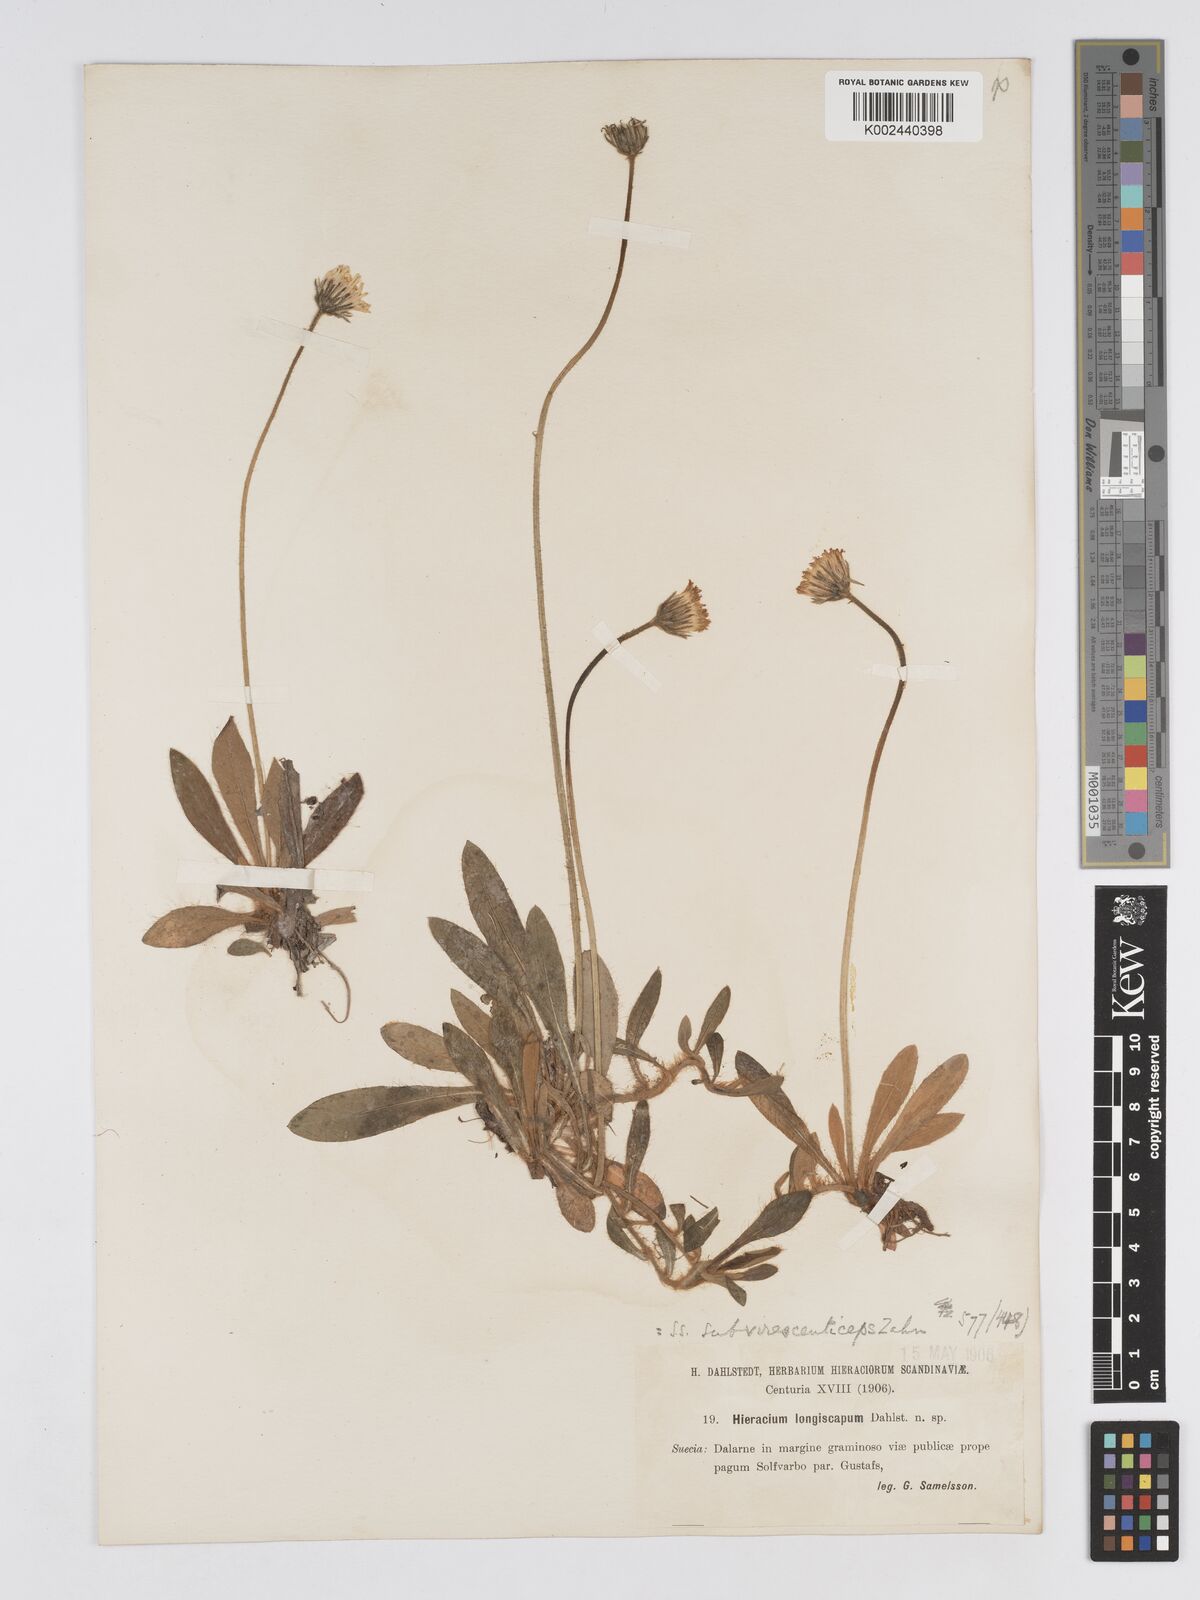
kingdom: Plantae
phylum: Tracheophyta
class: Magnoliopsida
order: Asterales
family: Asteraceae
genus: Pilosella
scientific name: Pilosella officinarum
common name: Mouse-ear hawkweed
